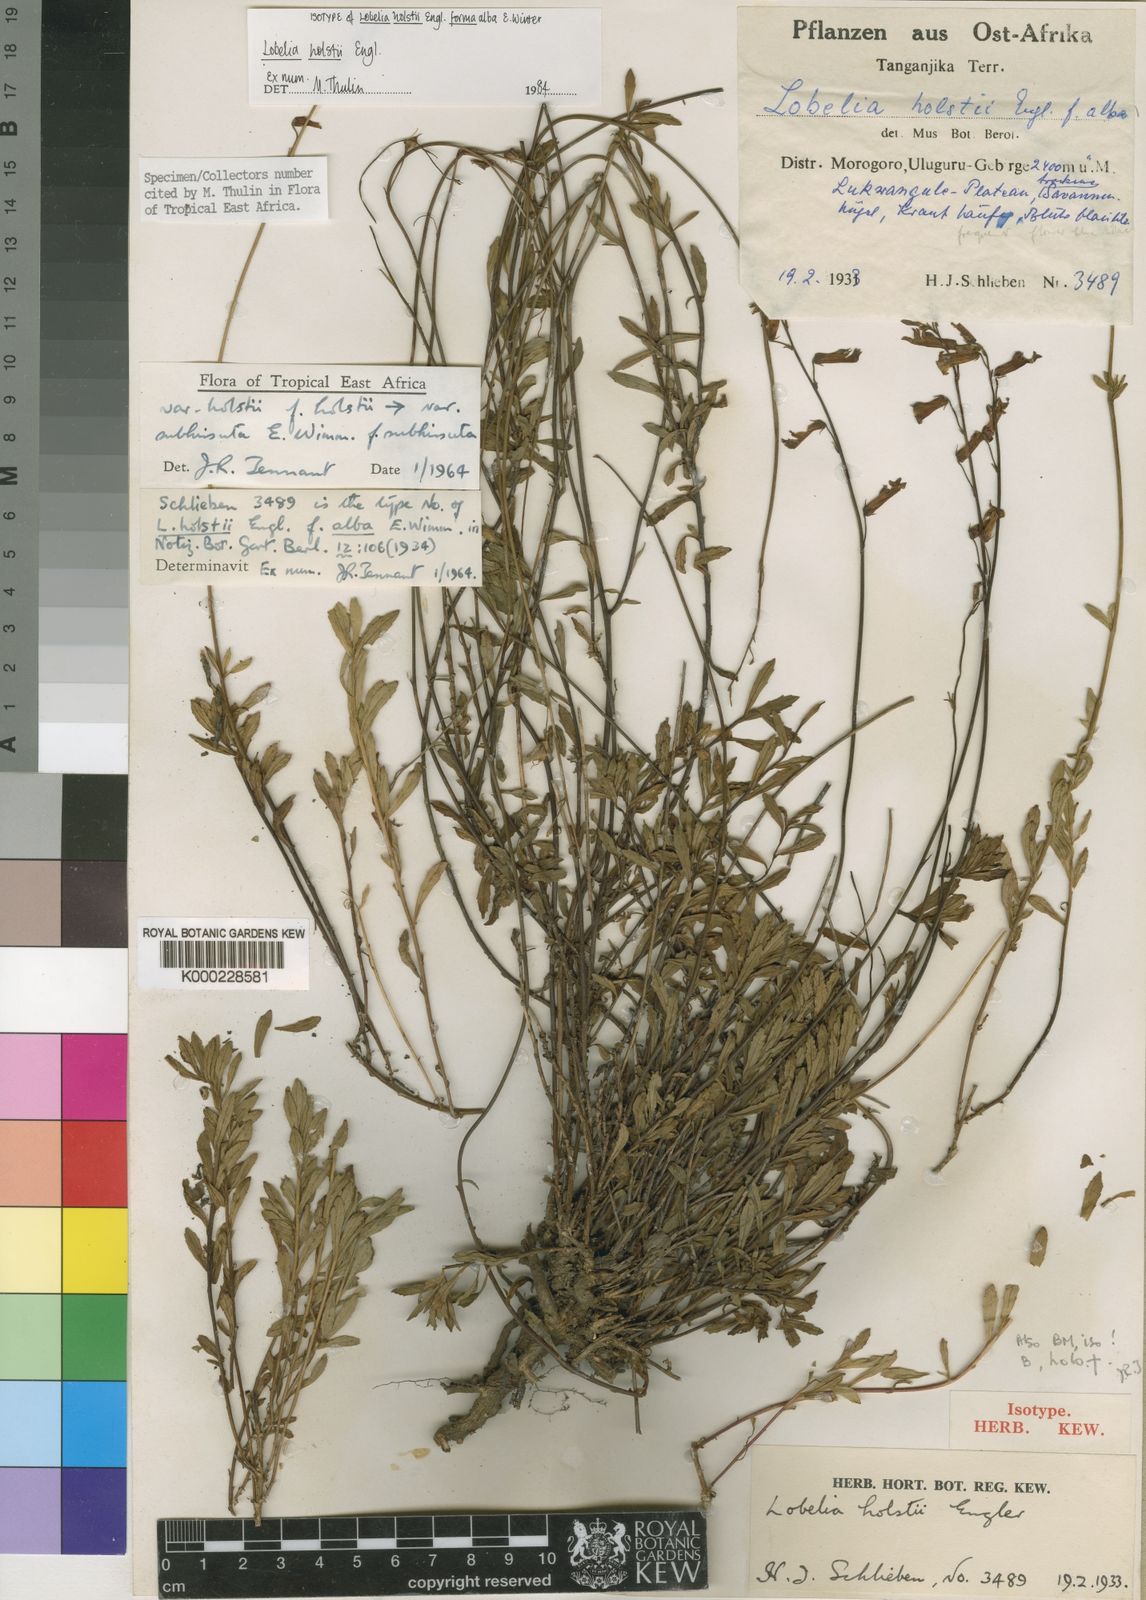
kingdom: Plantae
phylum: Tracheophyta
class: Magnoliopsida
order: Asterales
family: Campanulaceae
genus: Lobelia
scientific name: Lobelia holstii
